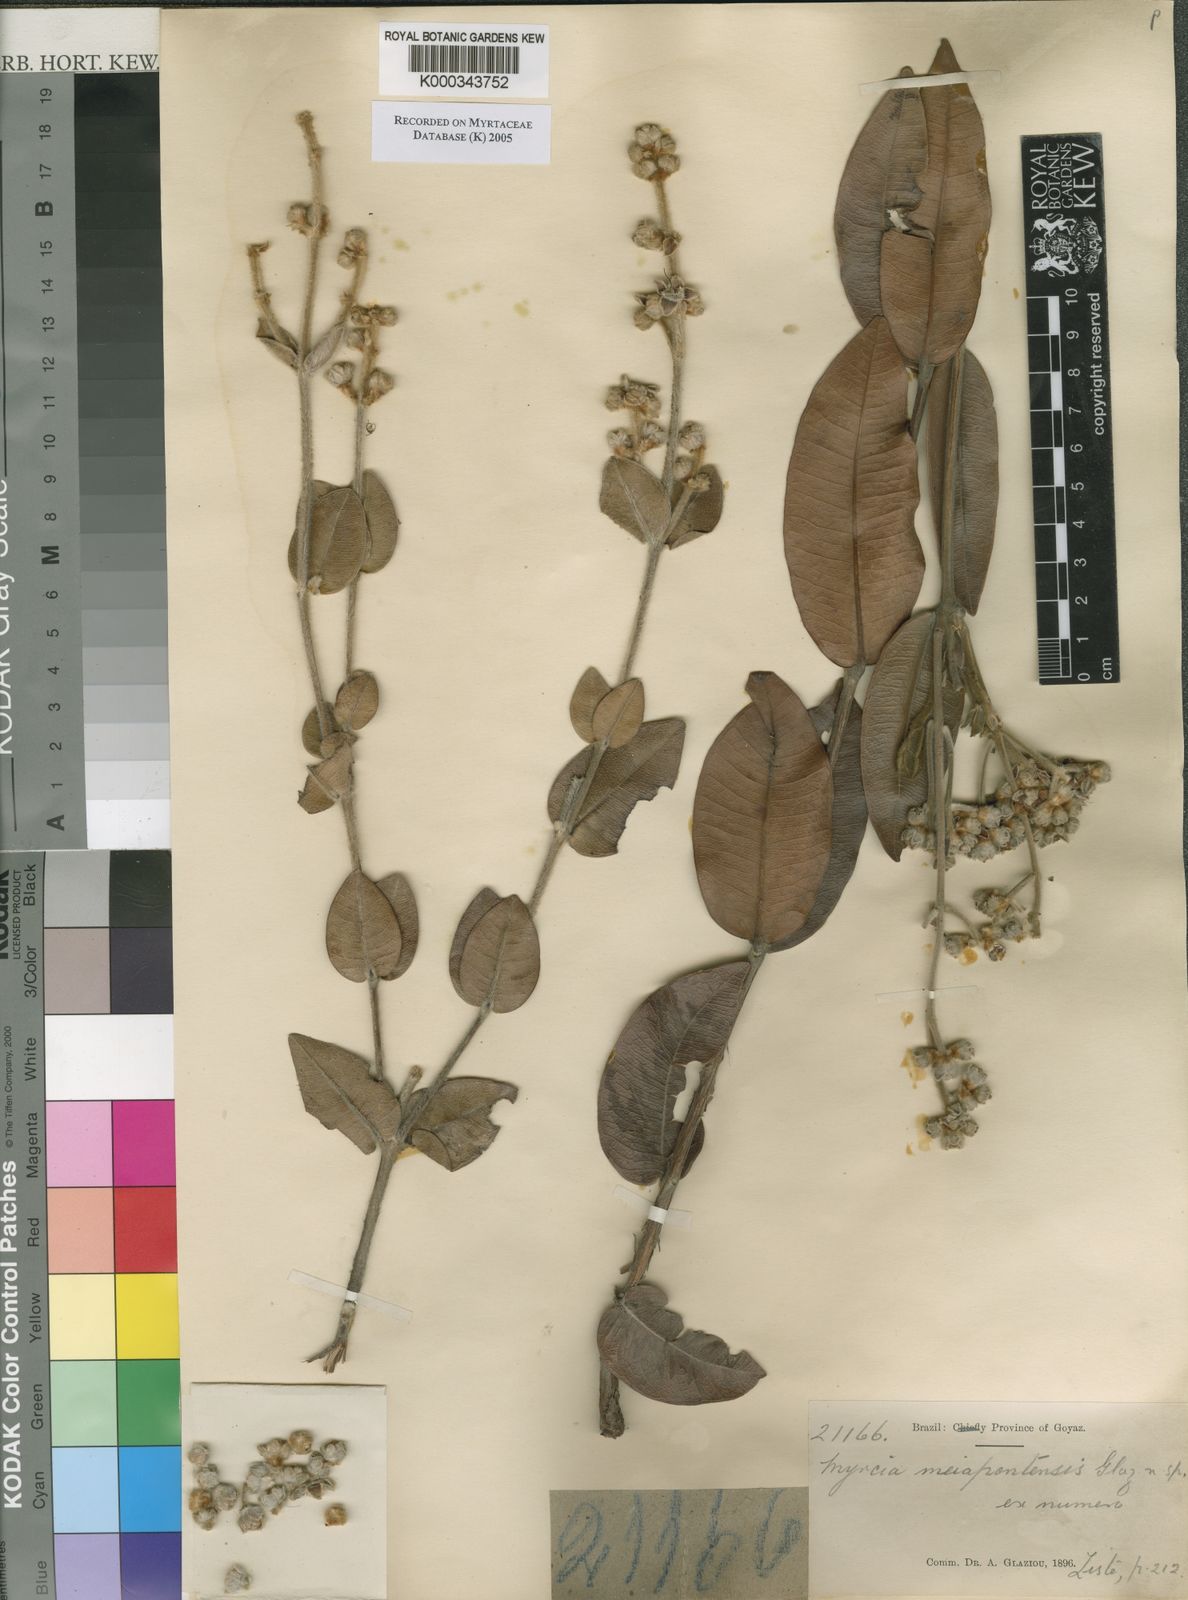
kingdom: Plantae
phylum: Tracheophyta
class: Magnoliopsida
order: Myrtales
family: Myrtaceae
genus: Myrcia
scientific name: Myrcia
